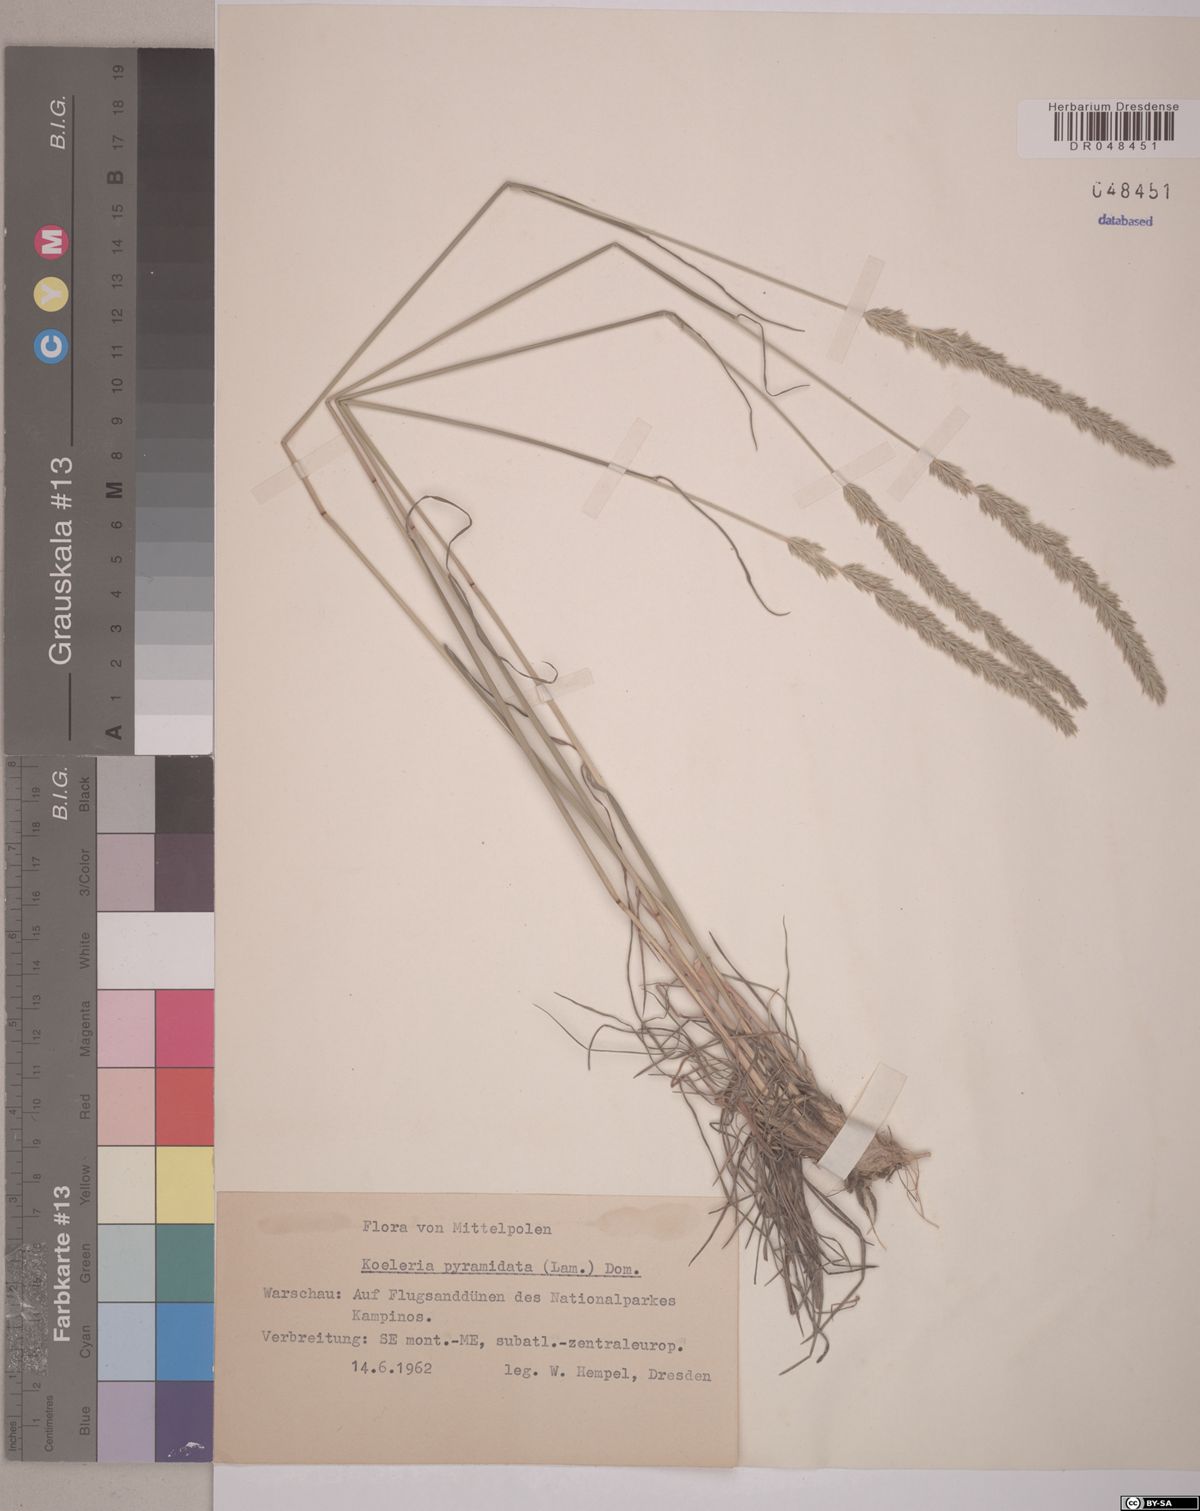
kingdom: Plantae
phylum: Tracheophyta
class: Liliopsida
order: Poales
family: Poaceae
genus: Koeleria
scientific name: Koeleria pyramidata
